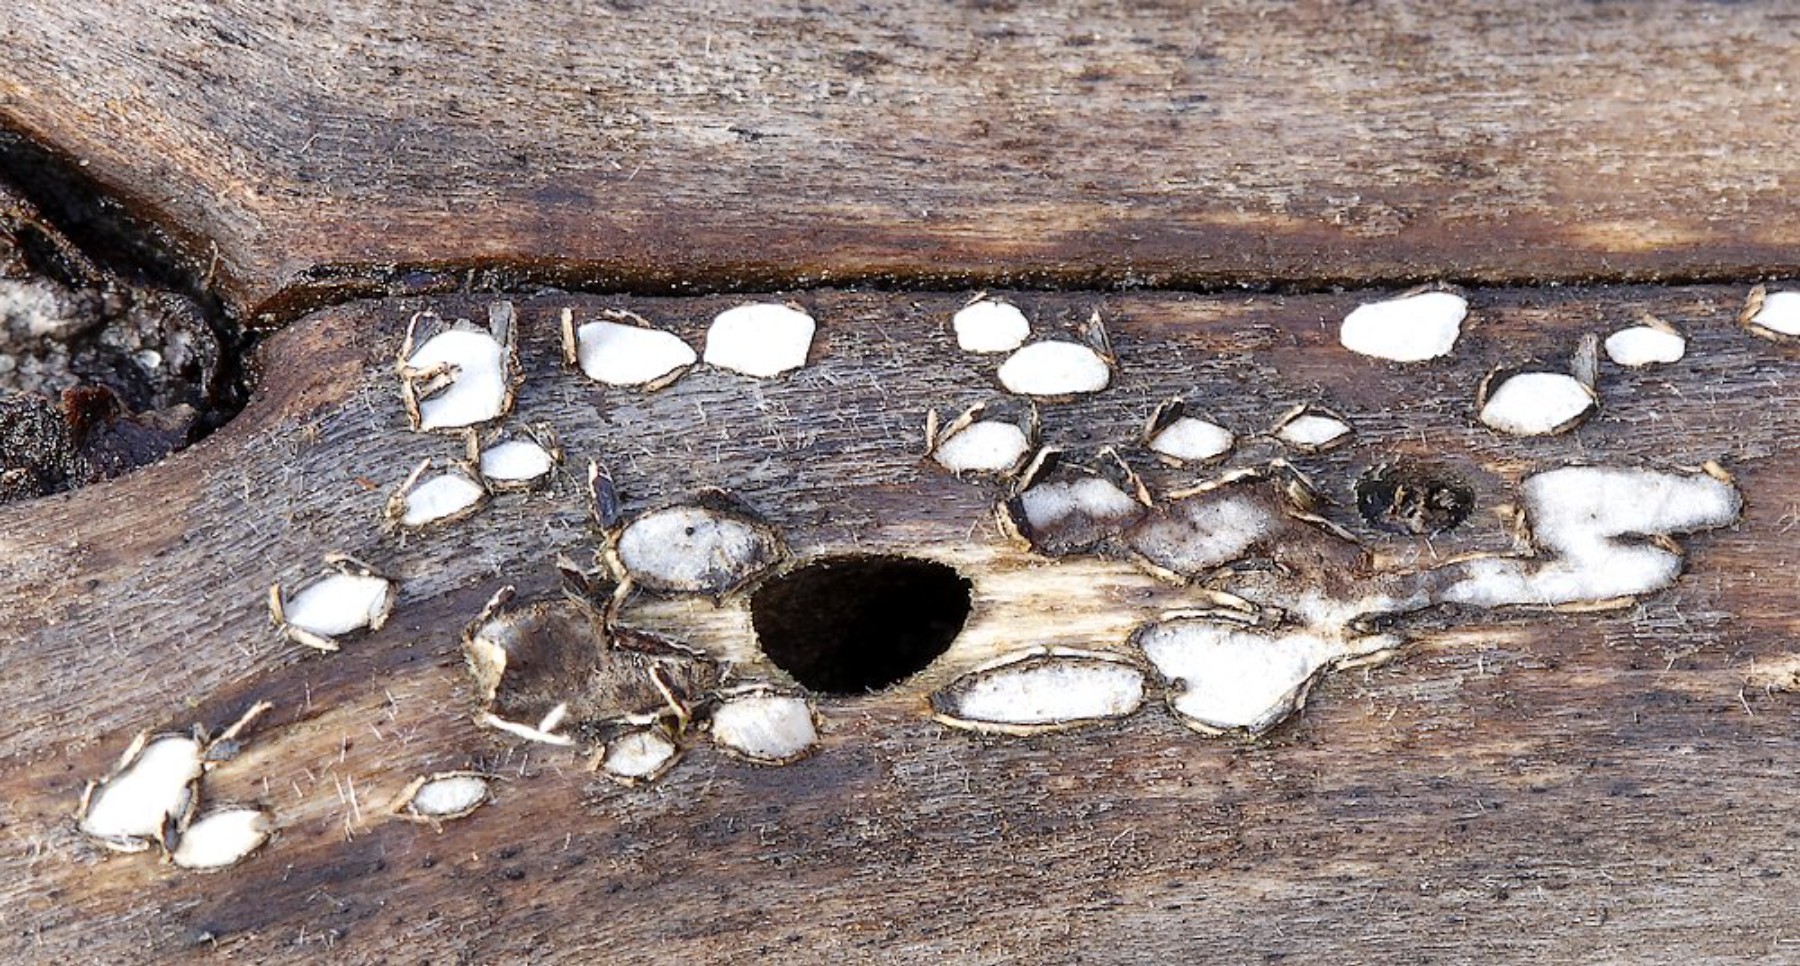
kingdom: Fungi
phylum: Ascomycota
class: Leotiomycetes
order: Chaetomellales
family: Marthamycetaceae
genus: Propolis
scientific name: Propolis farinosa
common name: almindelig vedsprængerskive
